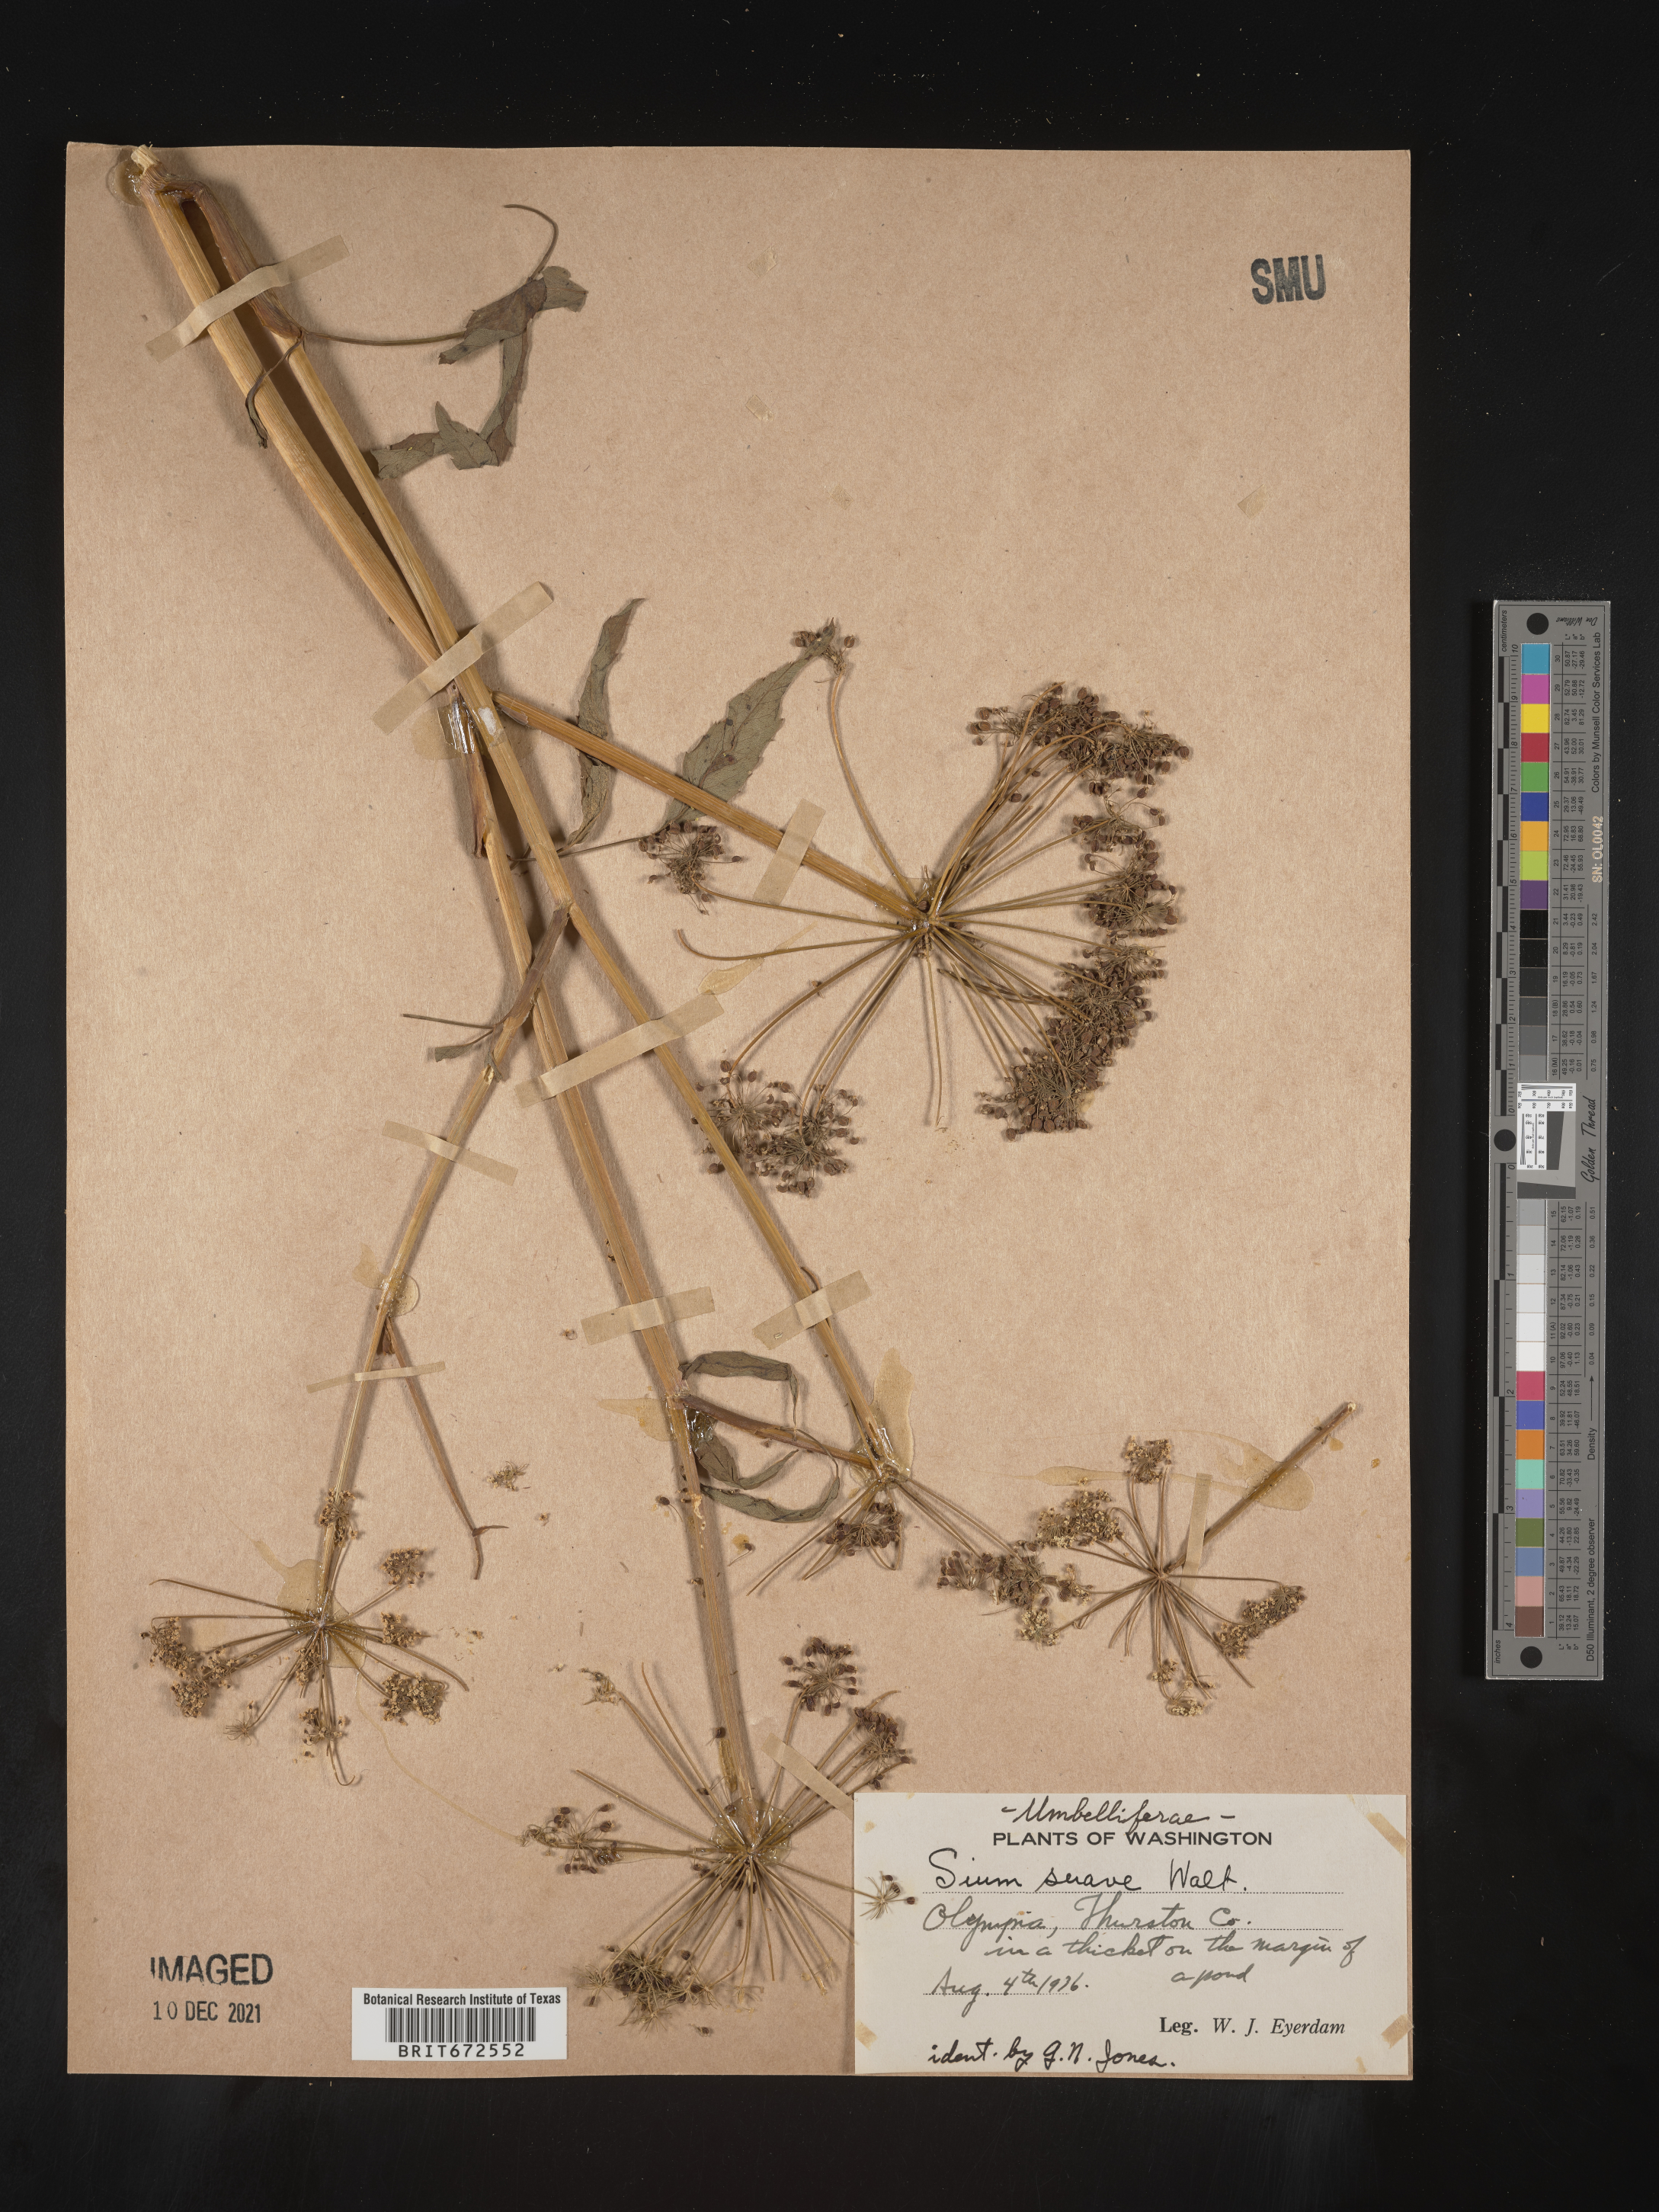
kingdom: Plantae
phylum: Tracheophyta
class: Magnoliopsida
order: Apiales
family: Apiaceae
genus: Sium
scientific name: Sium suave
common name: Hemlock water-parsnip
